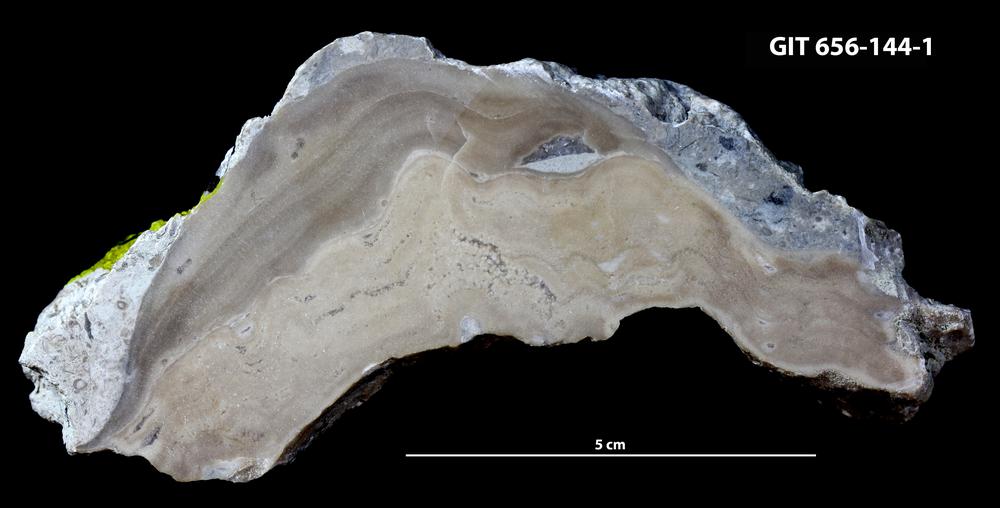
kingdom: Animalia
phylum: Porifera
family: Actinostromatidae
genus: Plectostroma
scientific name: Plectostroma
